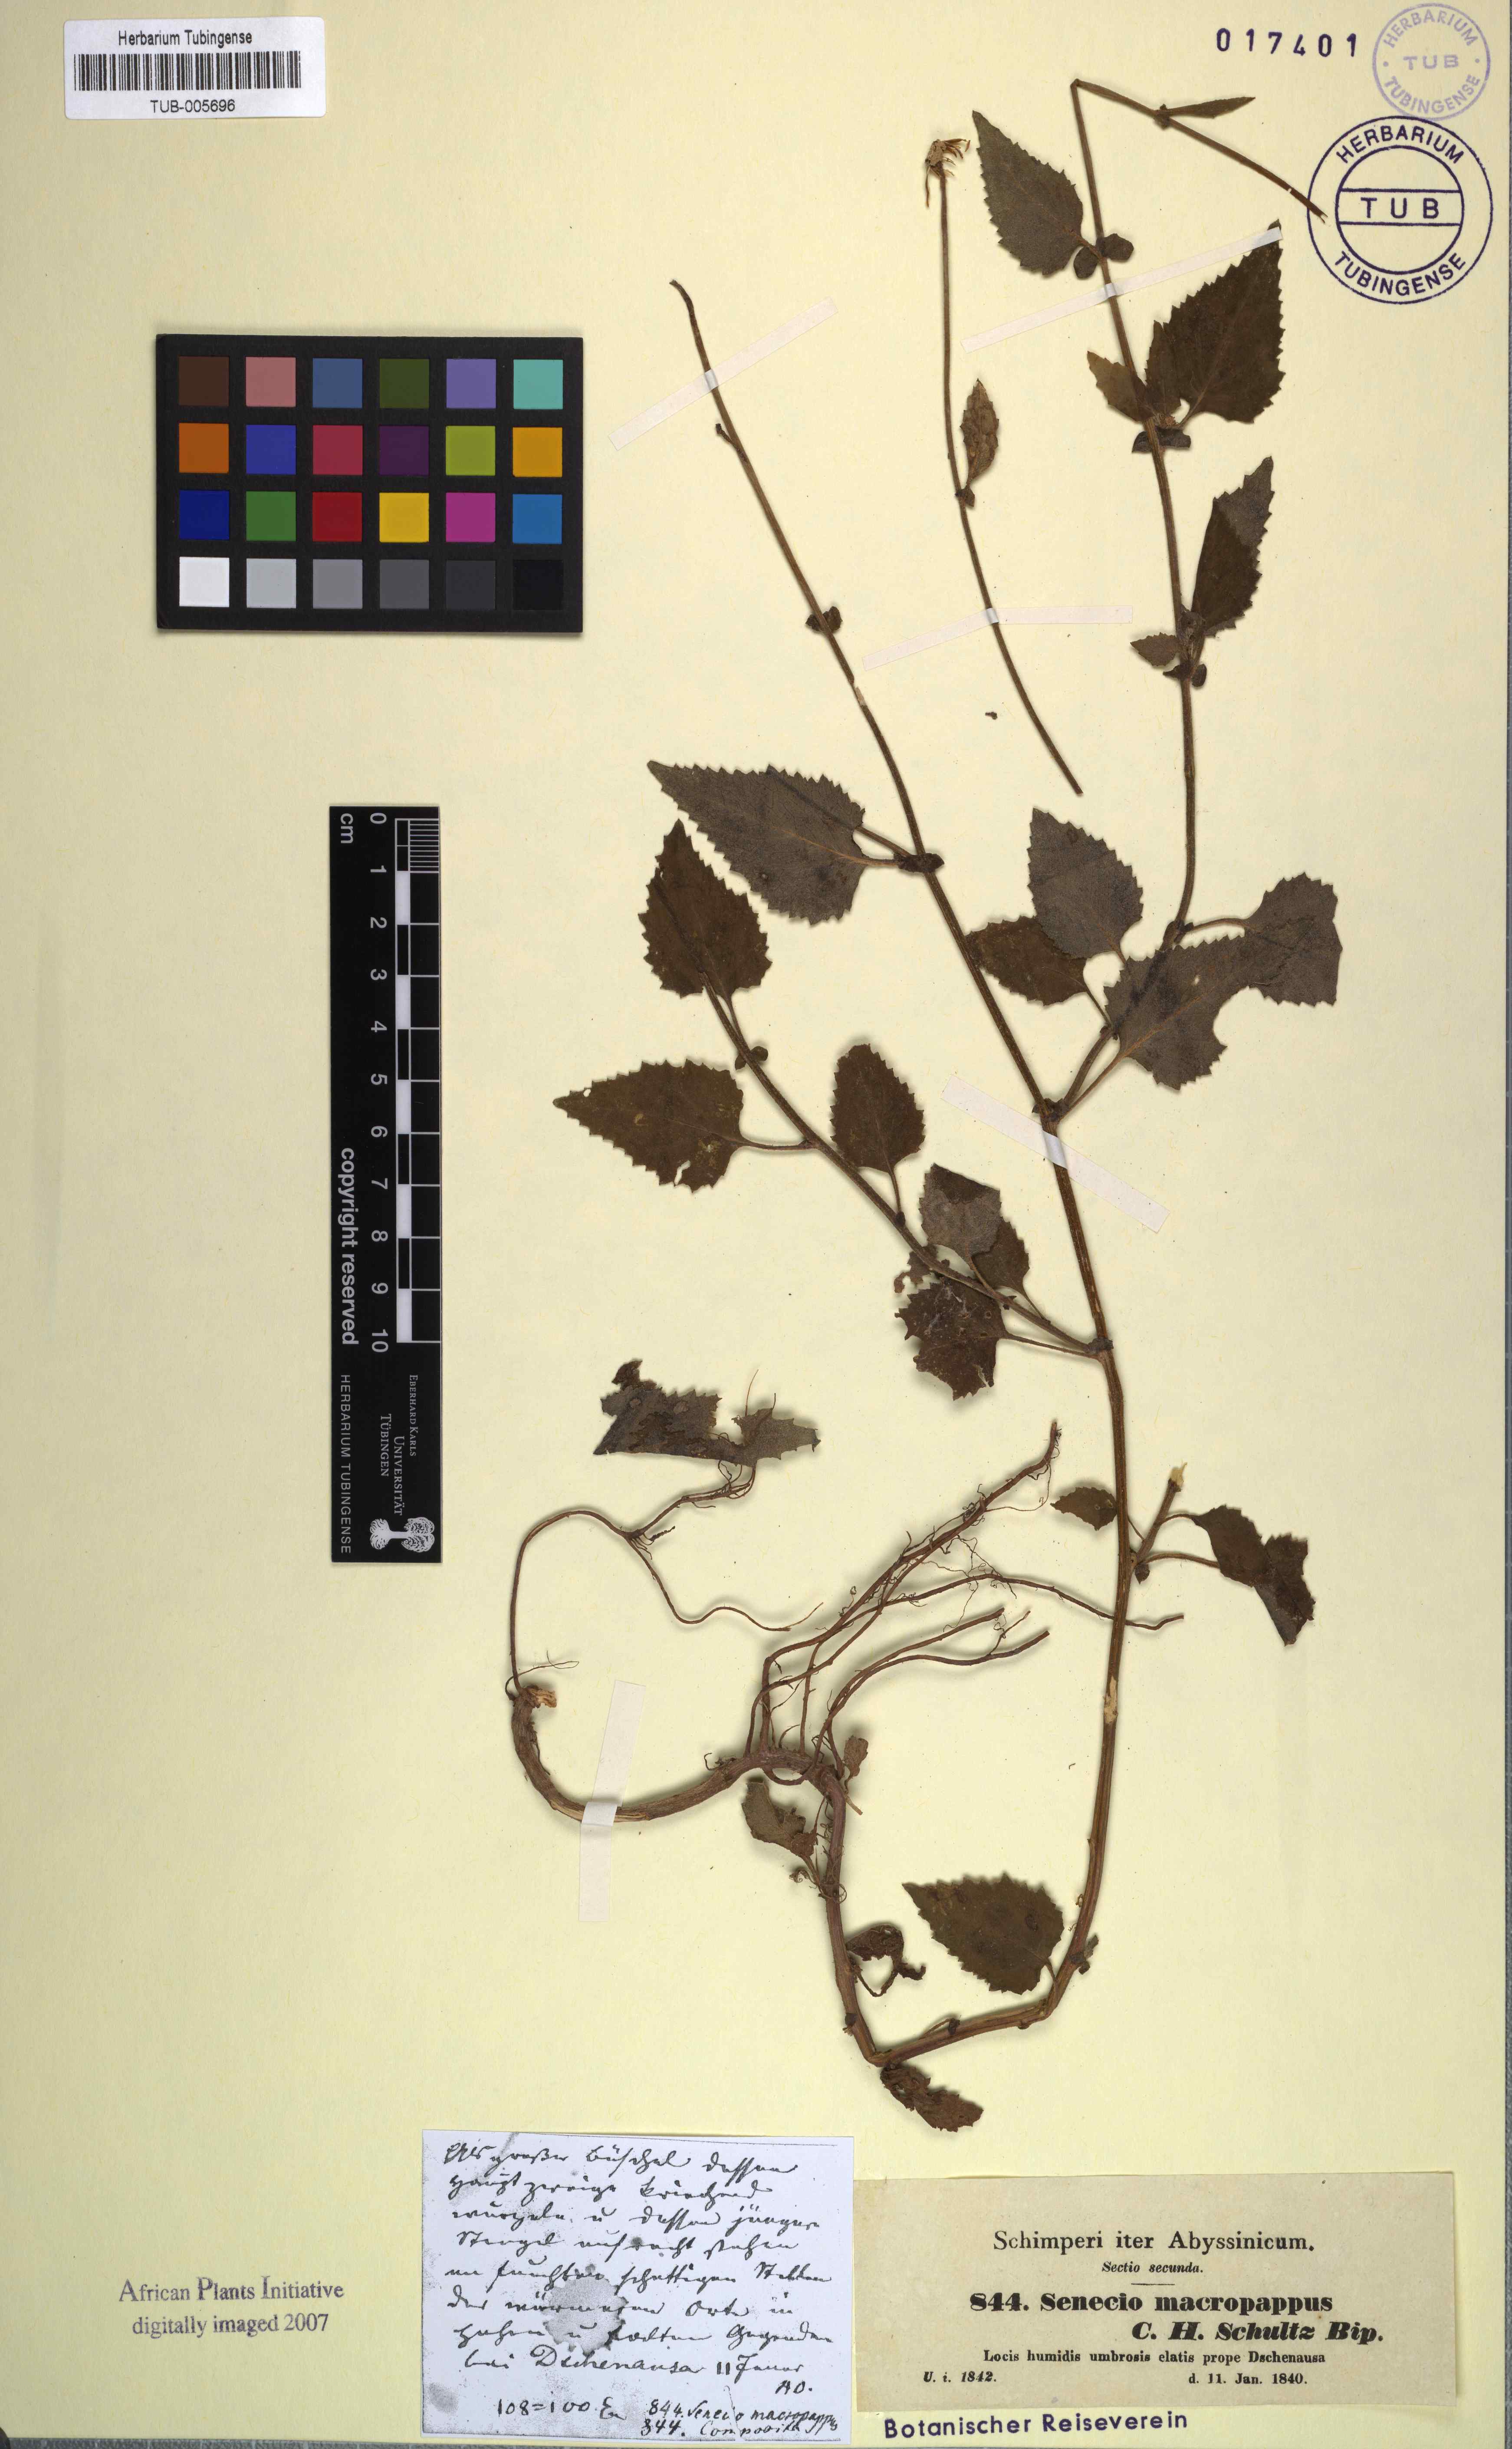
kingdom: Plantae
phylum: Tracheophyta
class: Magnoliopsida
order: Asterales
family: Asteraceae
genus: Crassocephalum
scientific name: Crassocephalum macropappus
